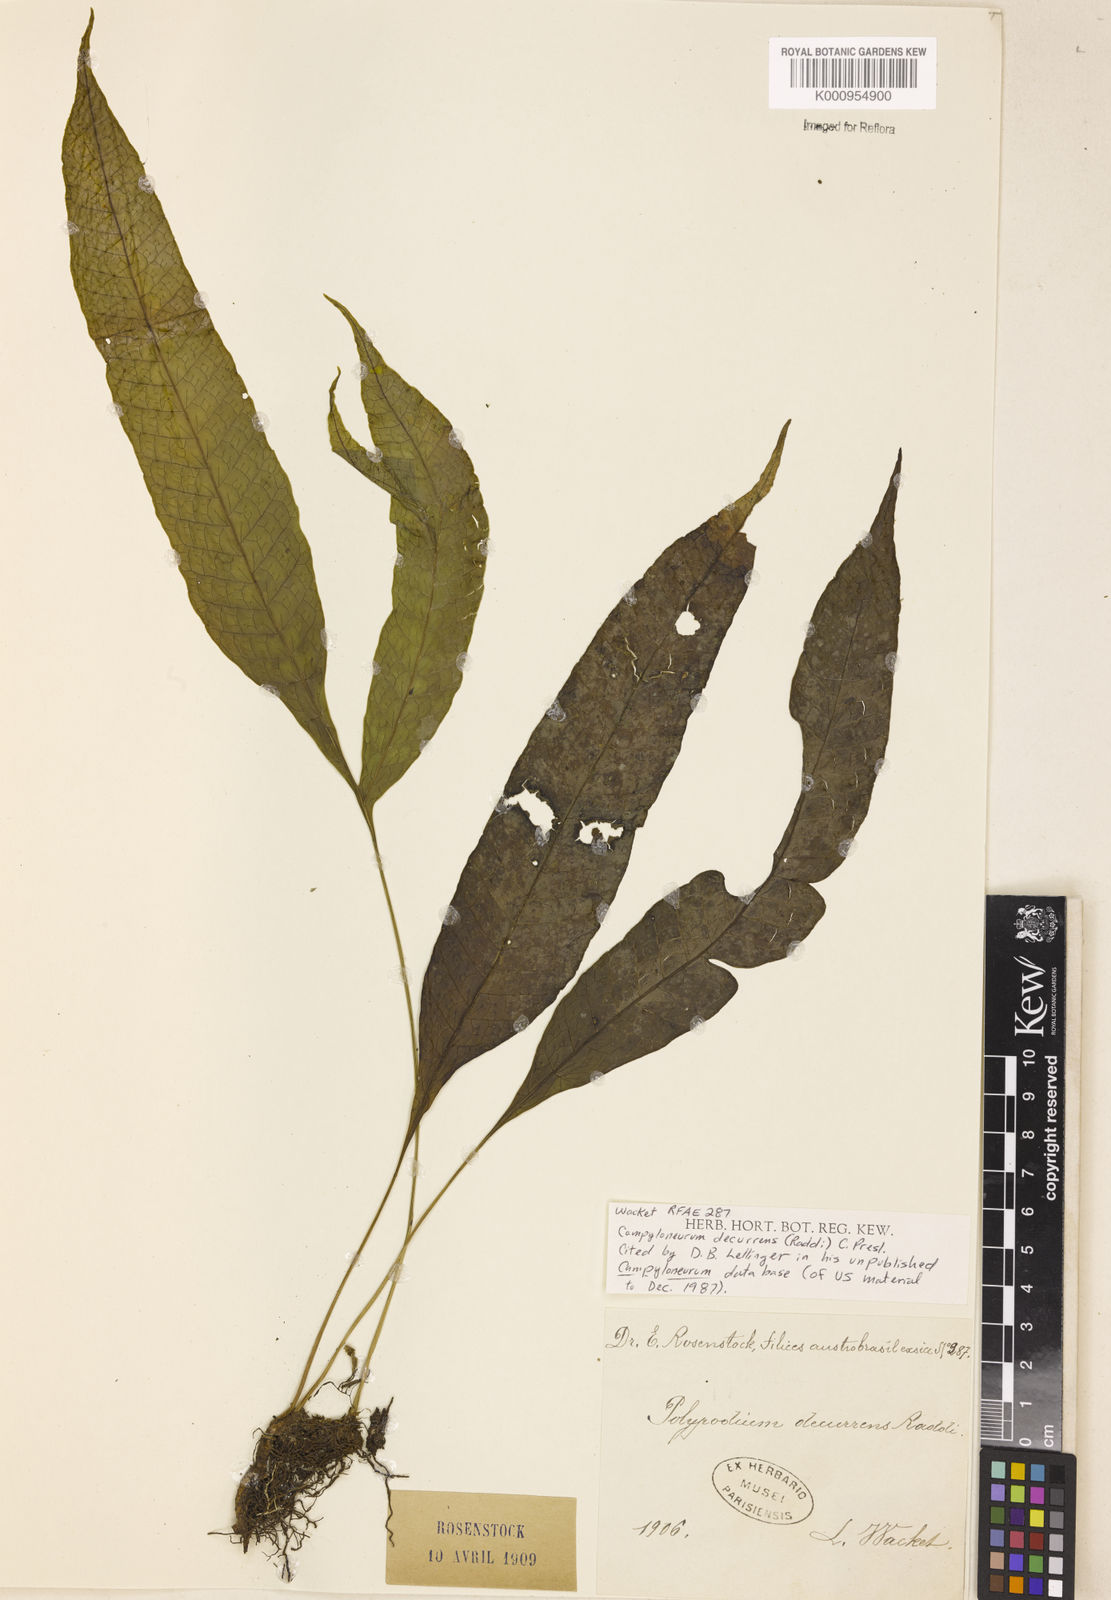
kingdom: Plantae
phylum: Tracheophyta
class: Polypodiopsida
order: Polypodiales
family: Polypodiaceae
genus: Campyloneurum
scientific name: Campyloneurum decurrens
